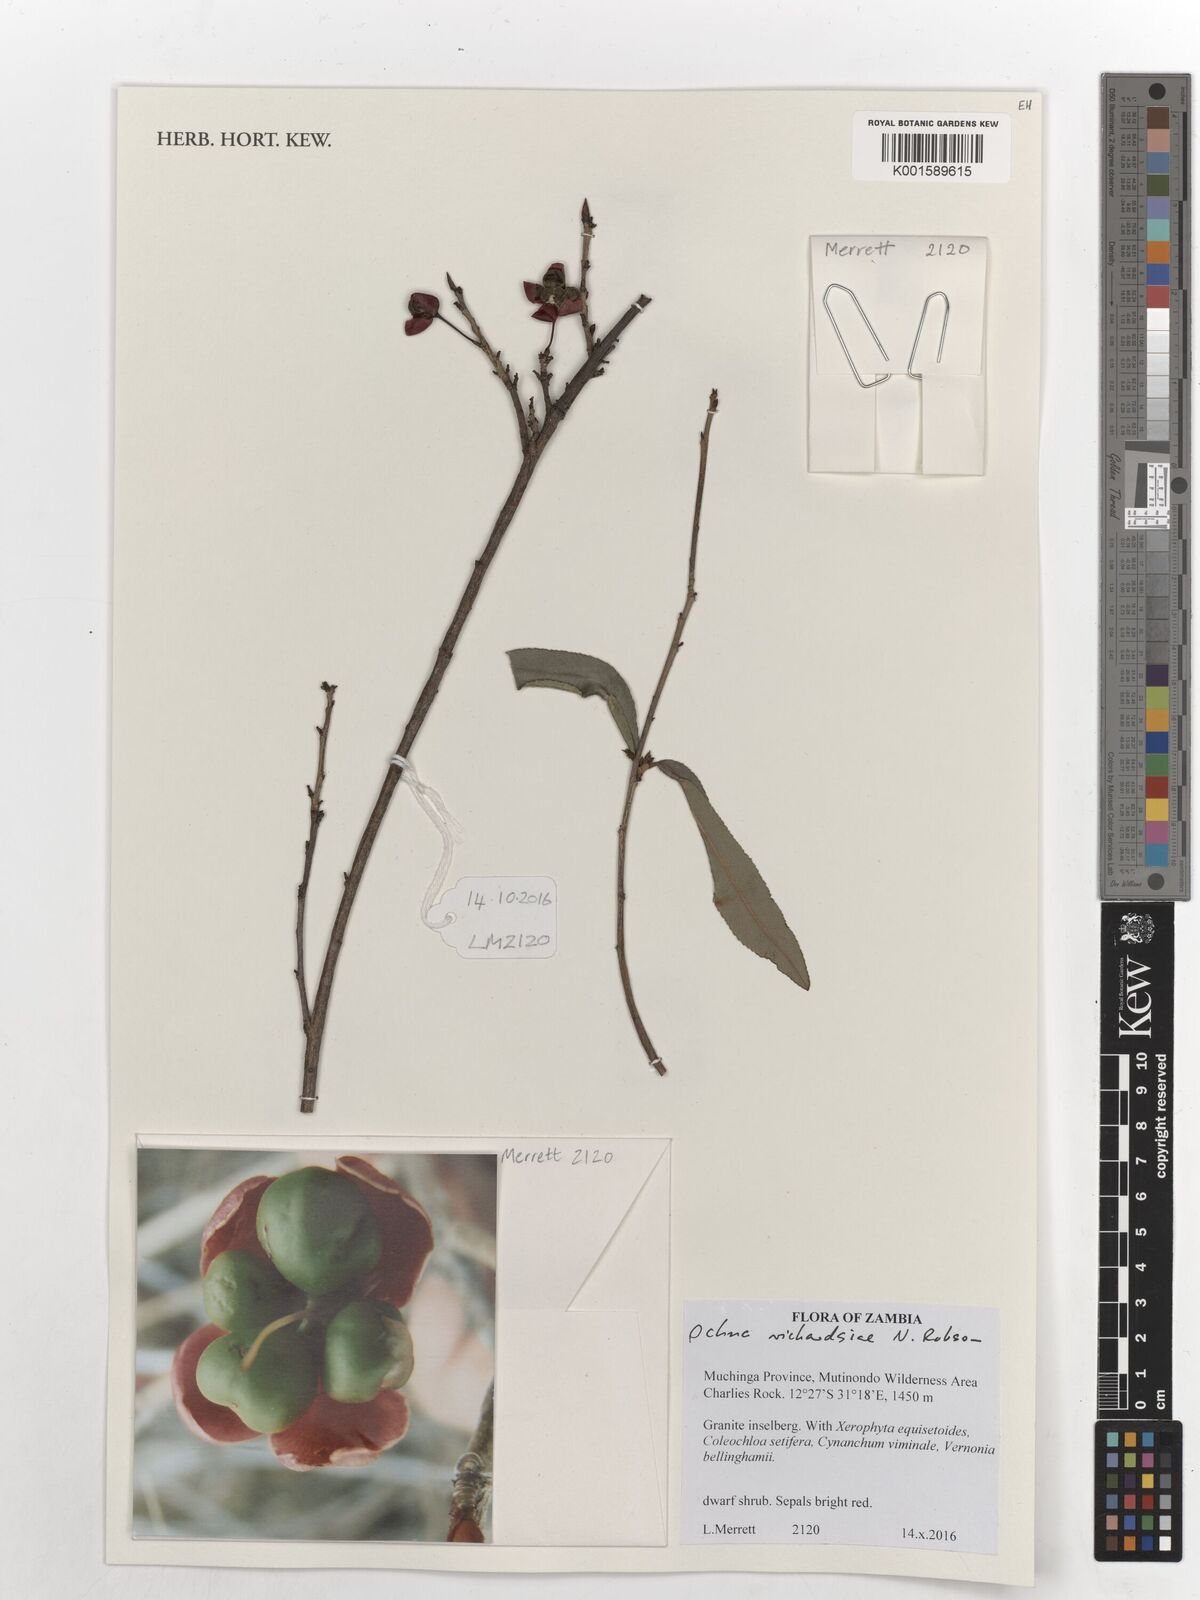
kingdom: Plantae
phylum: Tracheophyta
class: Magnoliopsida
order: Malpighiales
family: Ochnaceae
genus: Ochna
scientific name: Ochna richardsiae
